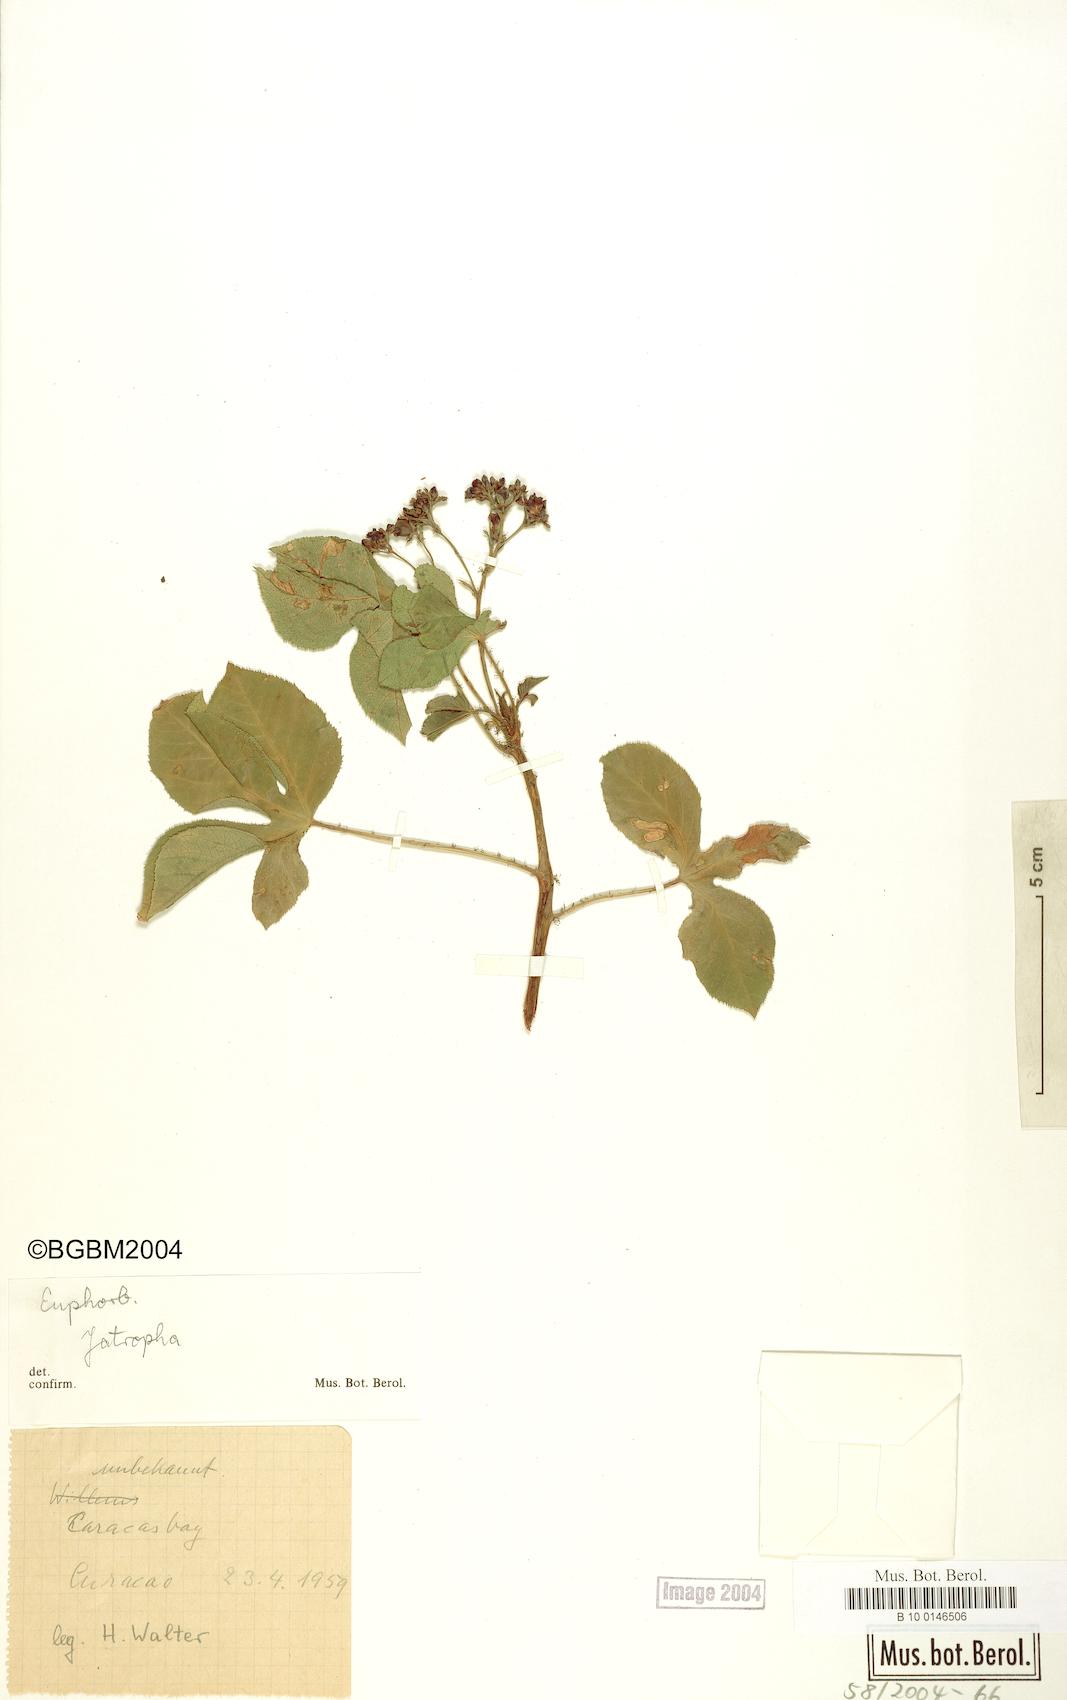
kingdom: Plantae
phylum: Tracheophyta
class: Magnoliopsida
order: Malpighiales
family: Euphorbiaceae
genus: Jatropha
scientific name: Jatropha
